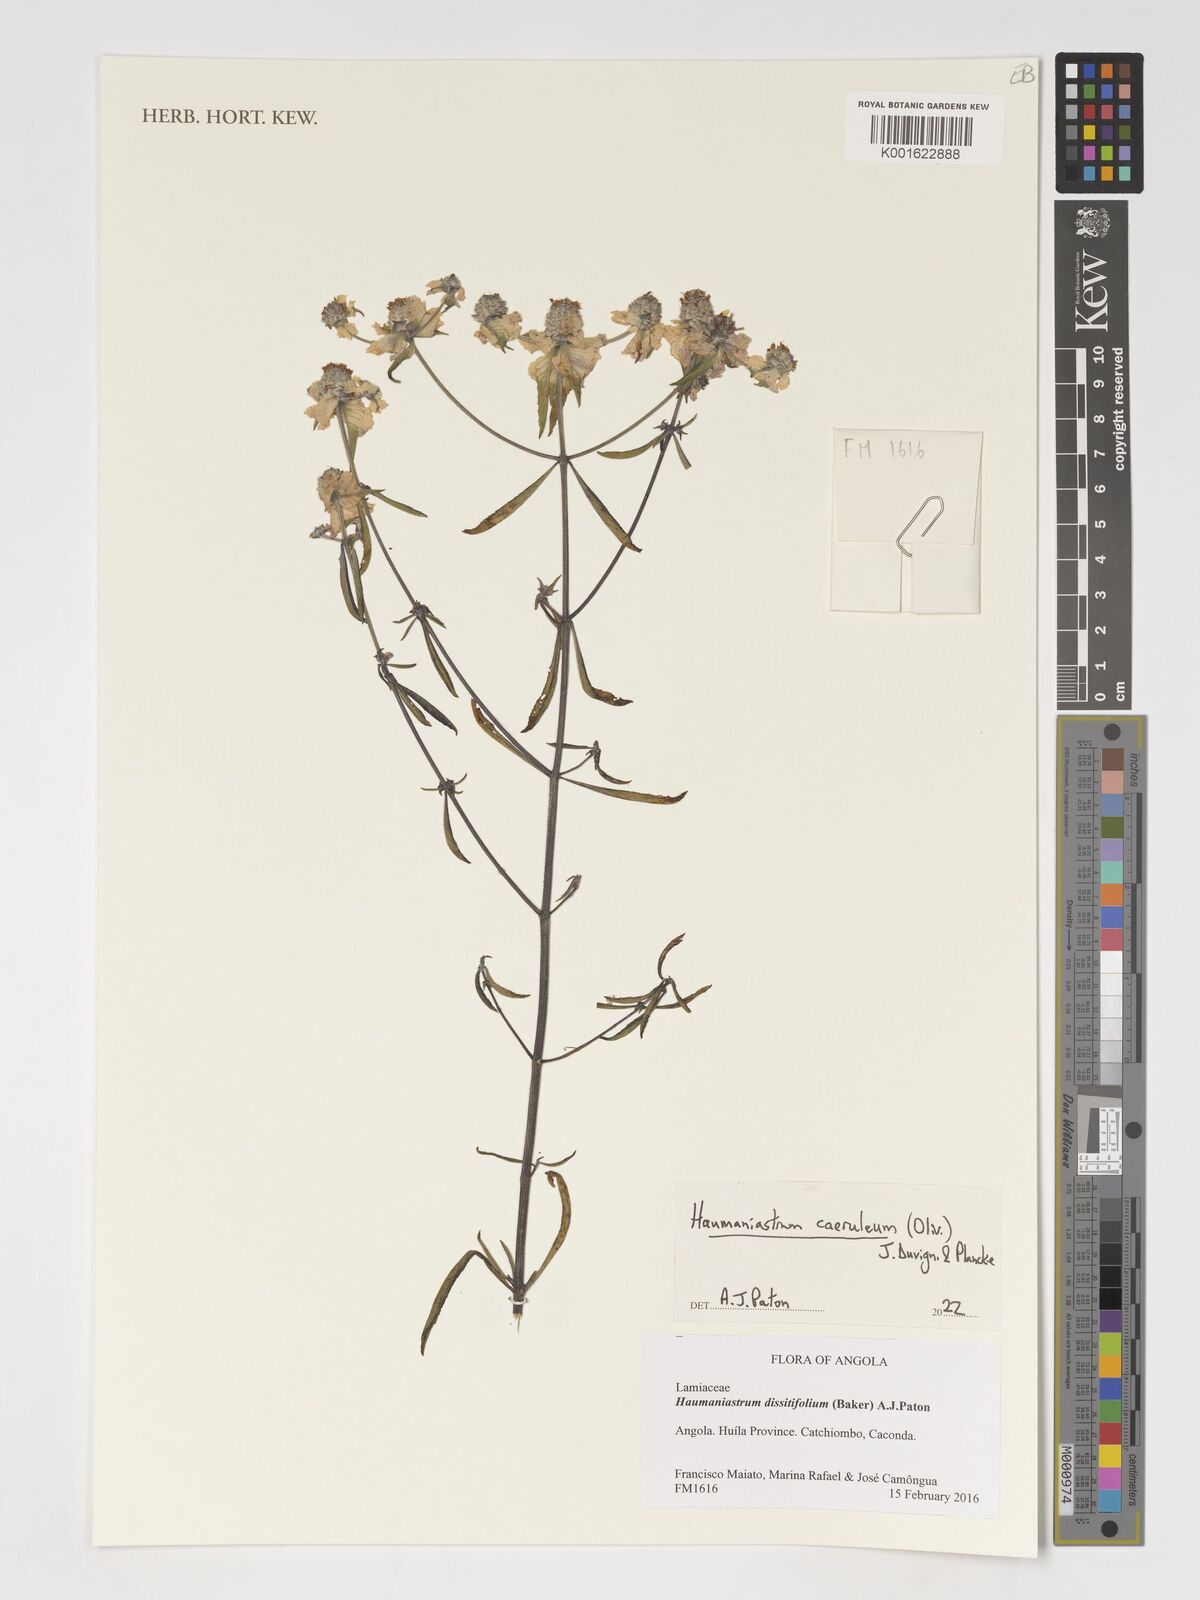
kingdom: Plantae
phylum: Tracheophyta
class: Magnoliopsida
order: Lamiales
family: Lamiaceae
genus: Haumaniastrum
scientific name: Haumaniastrum caeruleum
